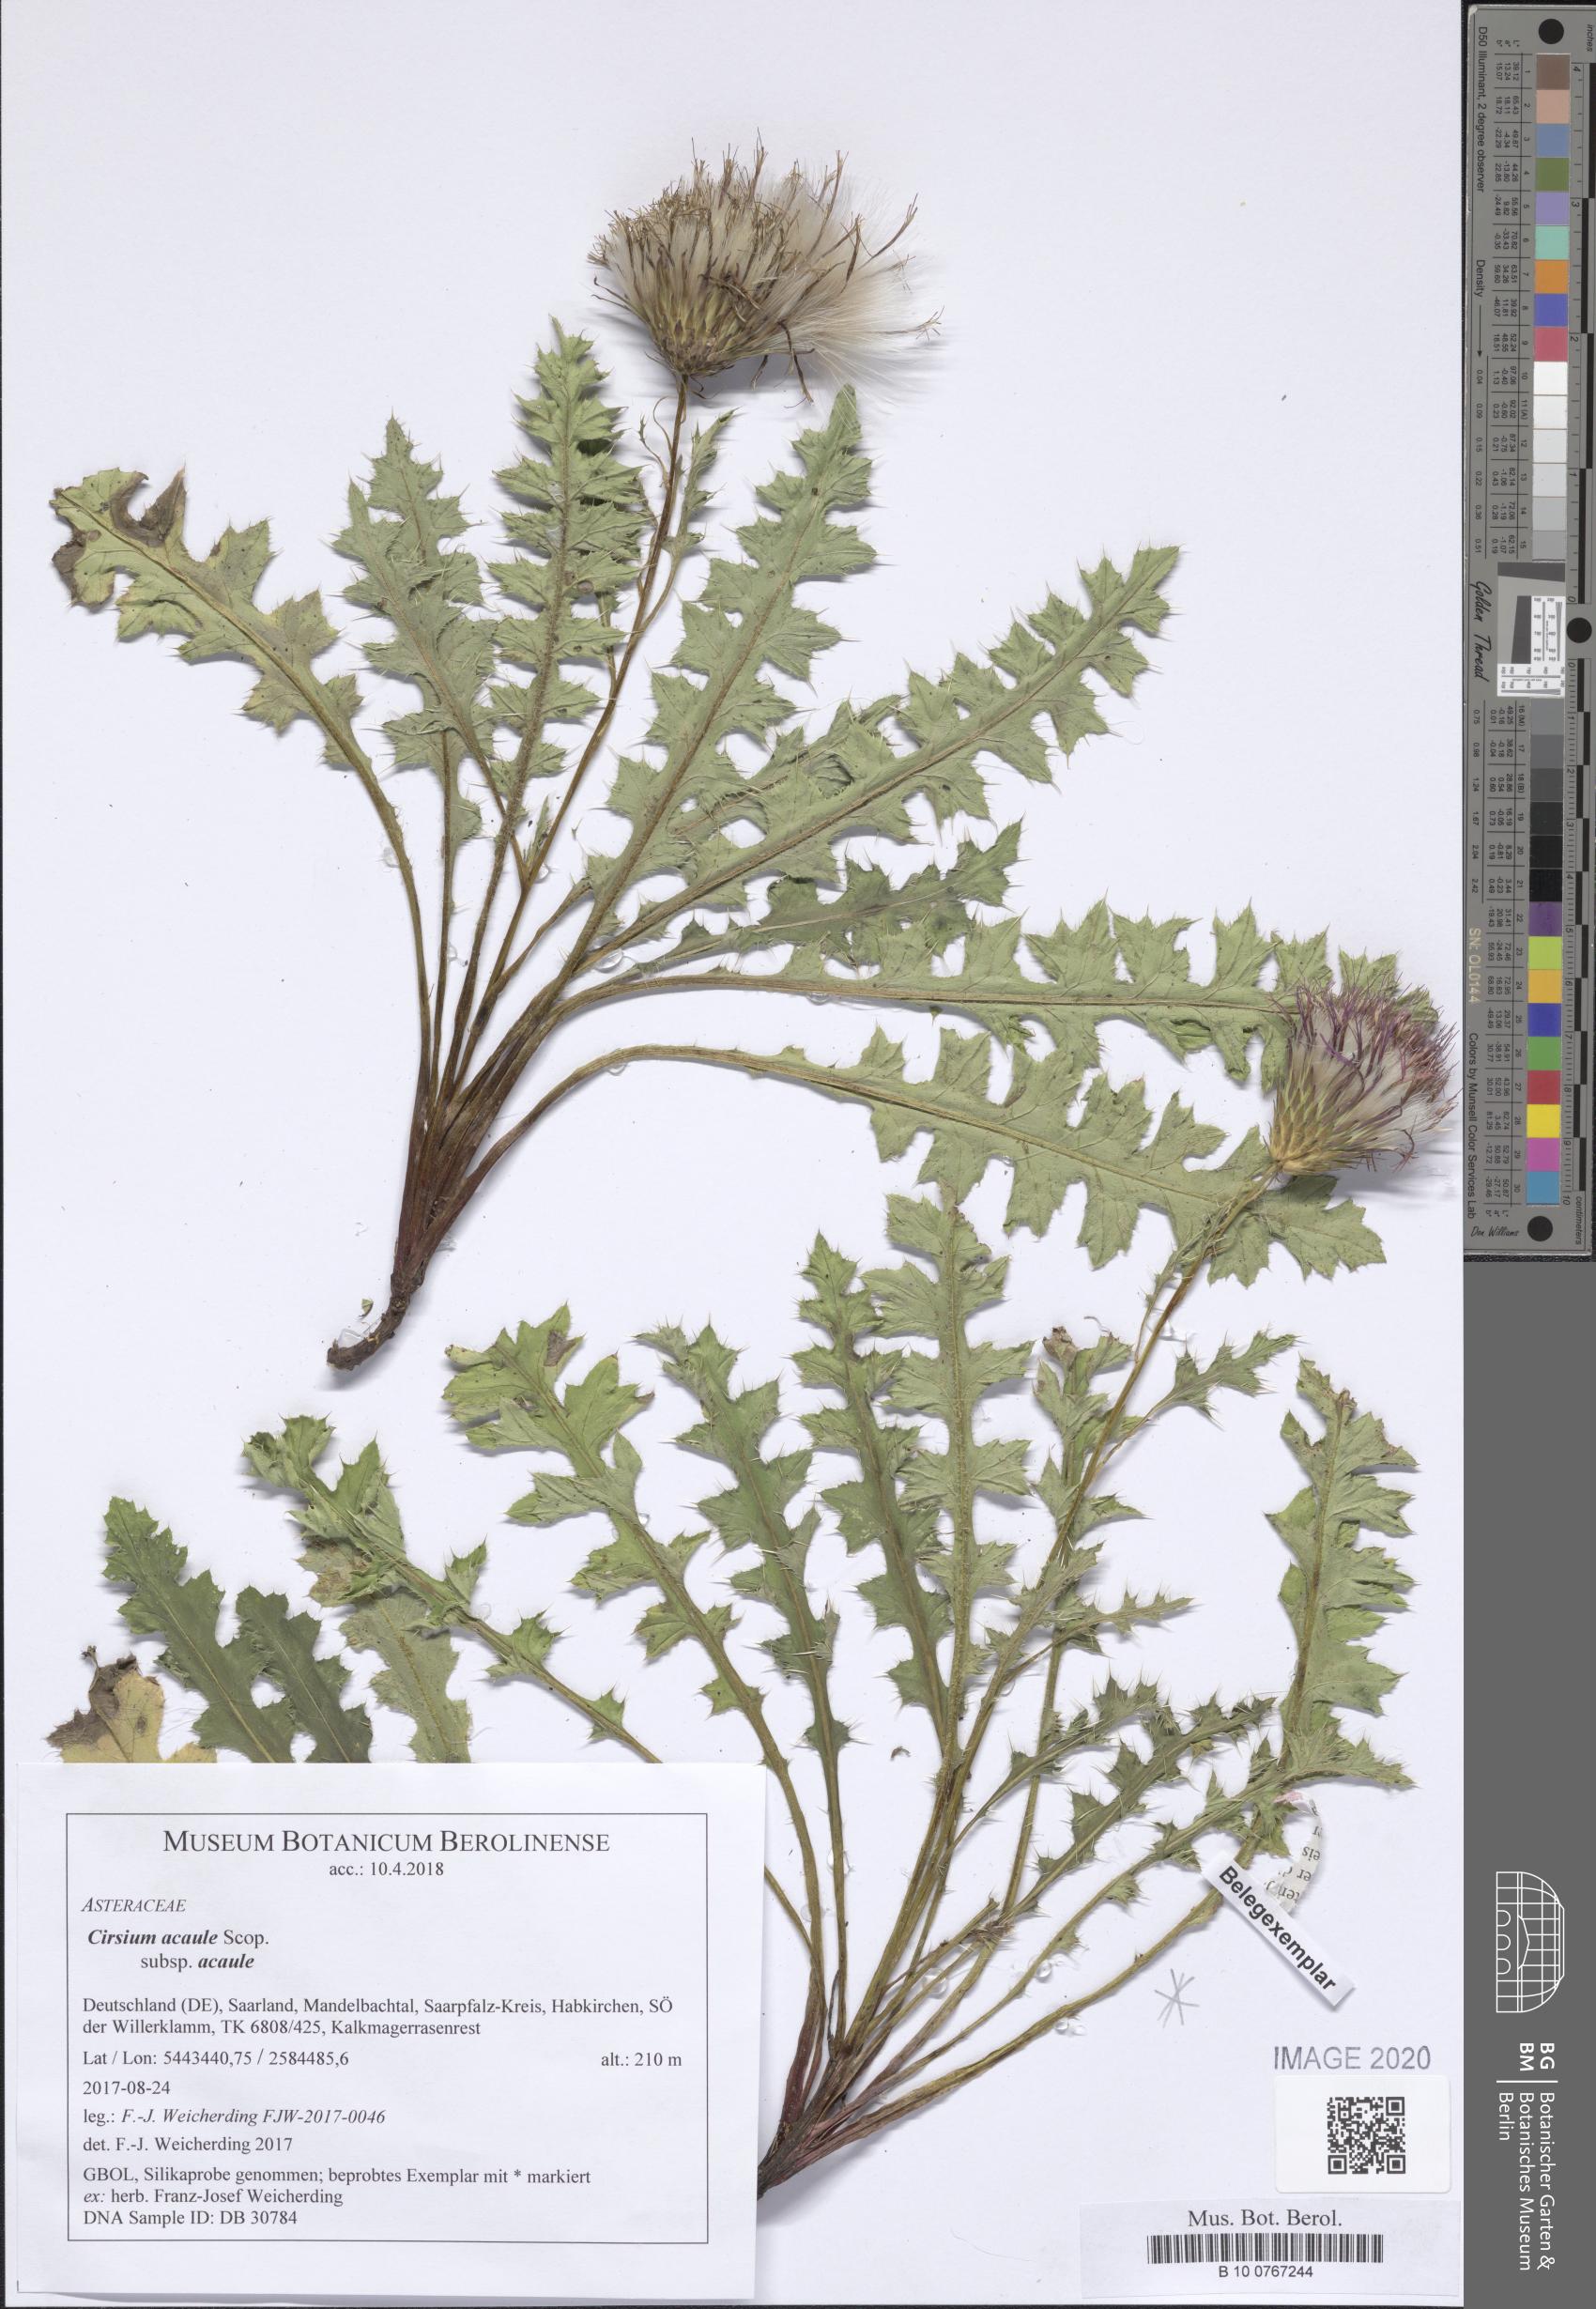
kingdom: Plantae
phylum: Tracheophyta
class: Magnoliopsida
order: Asterales
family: Asteraceae
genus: Cirsium
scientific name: Cirsium acaule
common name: Dwarf thistle
